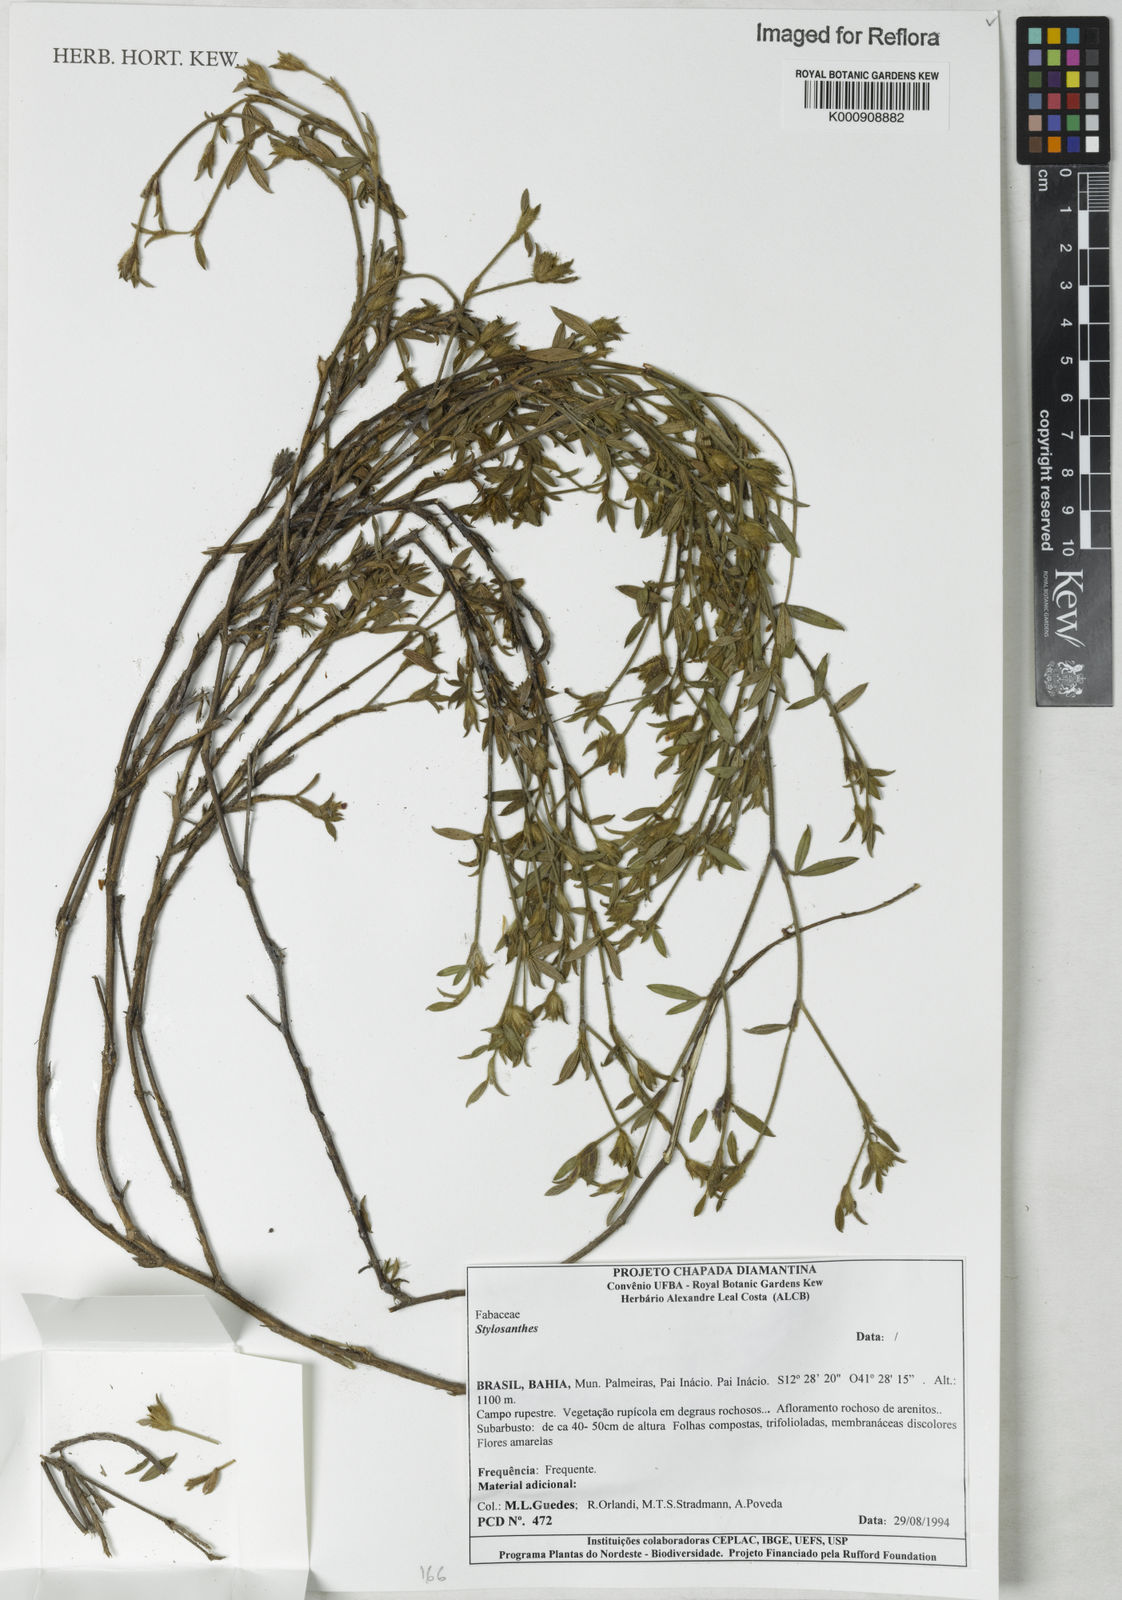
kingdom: Plantae
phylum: Tracheophyta
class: Magnoliopsida
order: Fabales
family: Fabaceae
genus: Stylosanthes
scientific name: Stylosanthes
